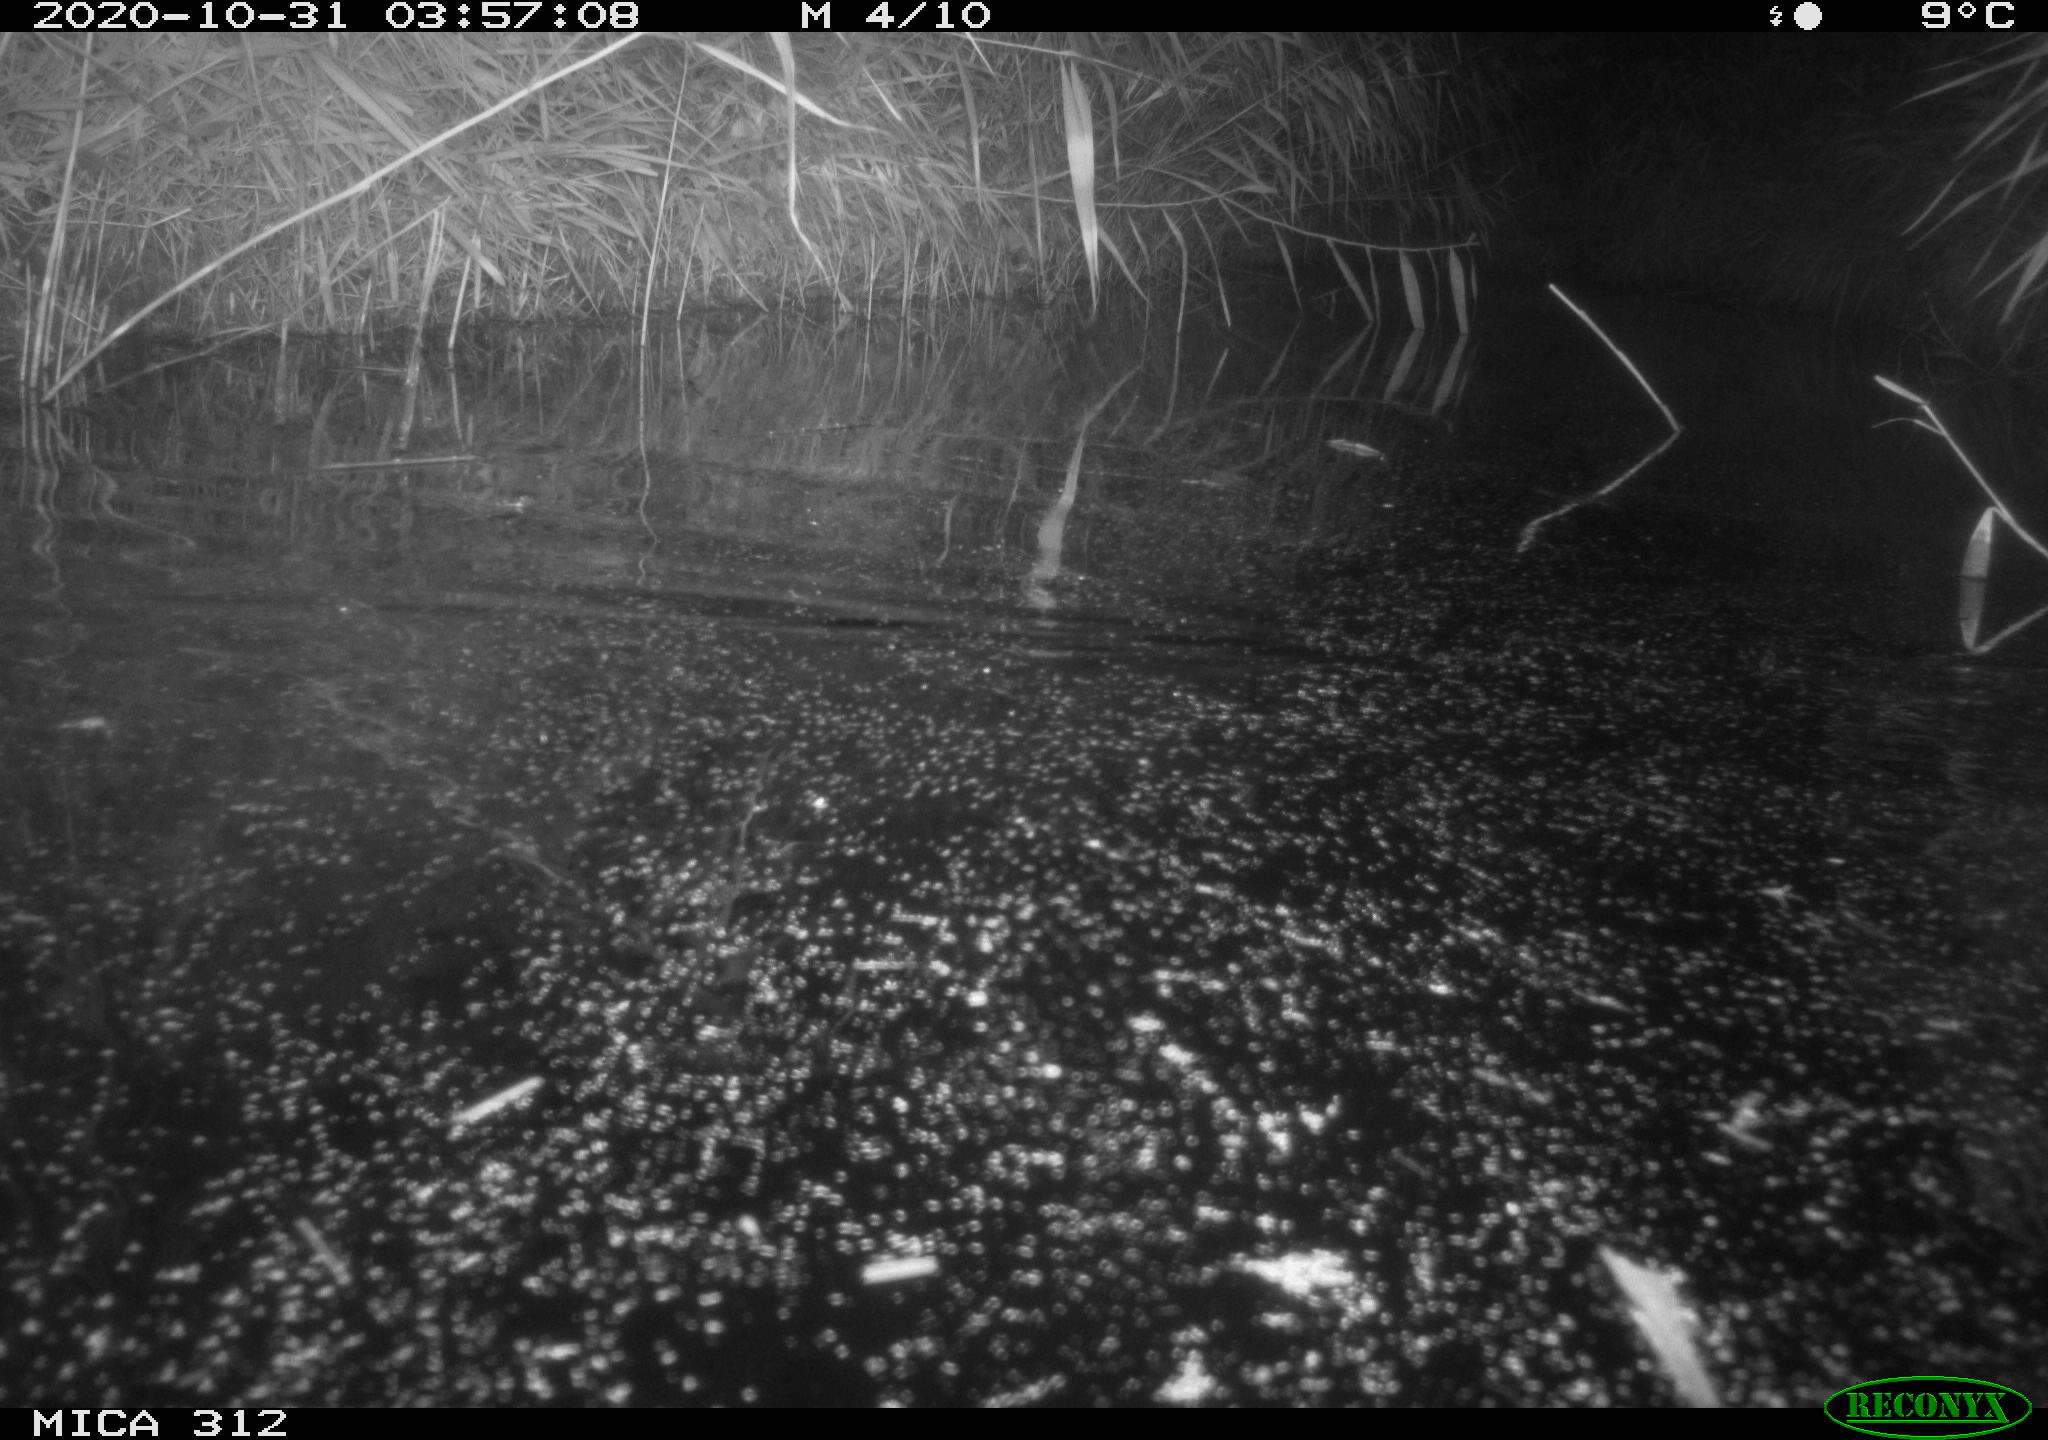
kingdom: Animalia
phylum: Chordata
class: Mammalia
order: Rodentia
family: Muridae
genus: Rattus
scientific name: Rattus norvegicus
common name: Brown rat
